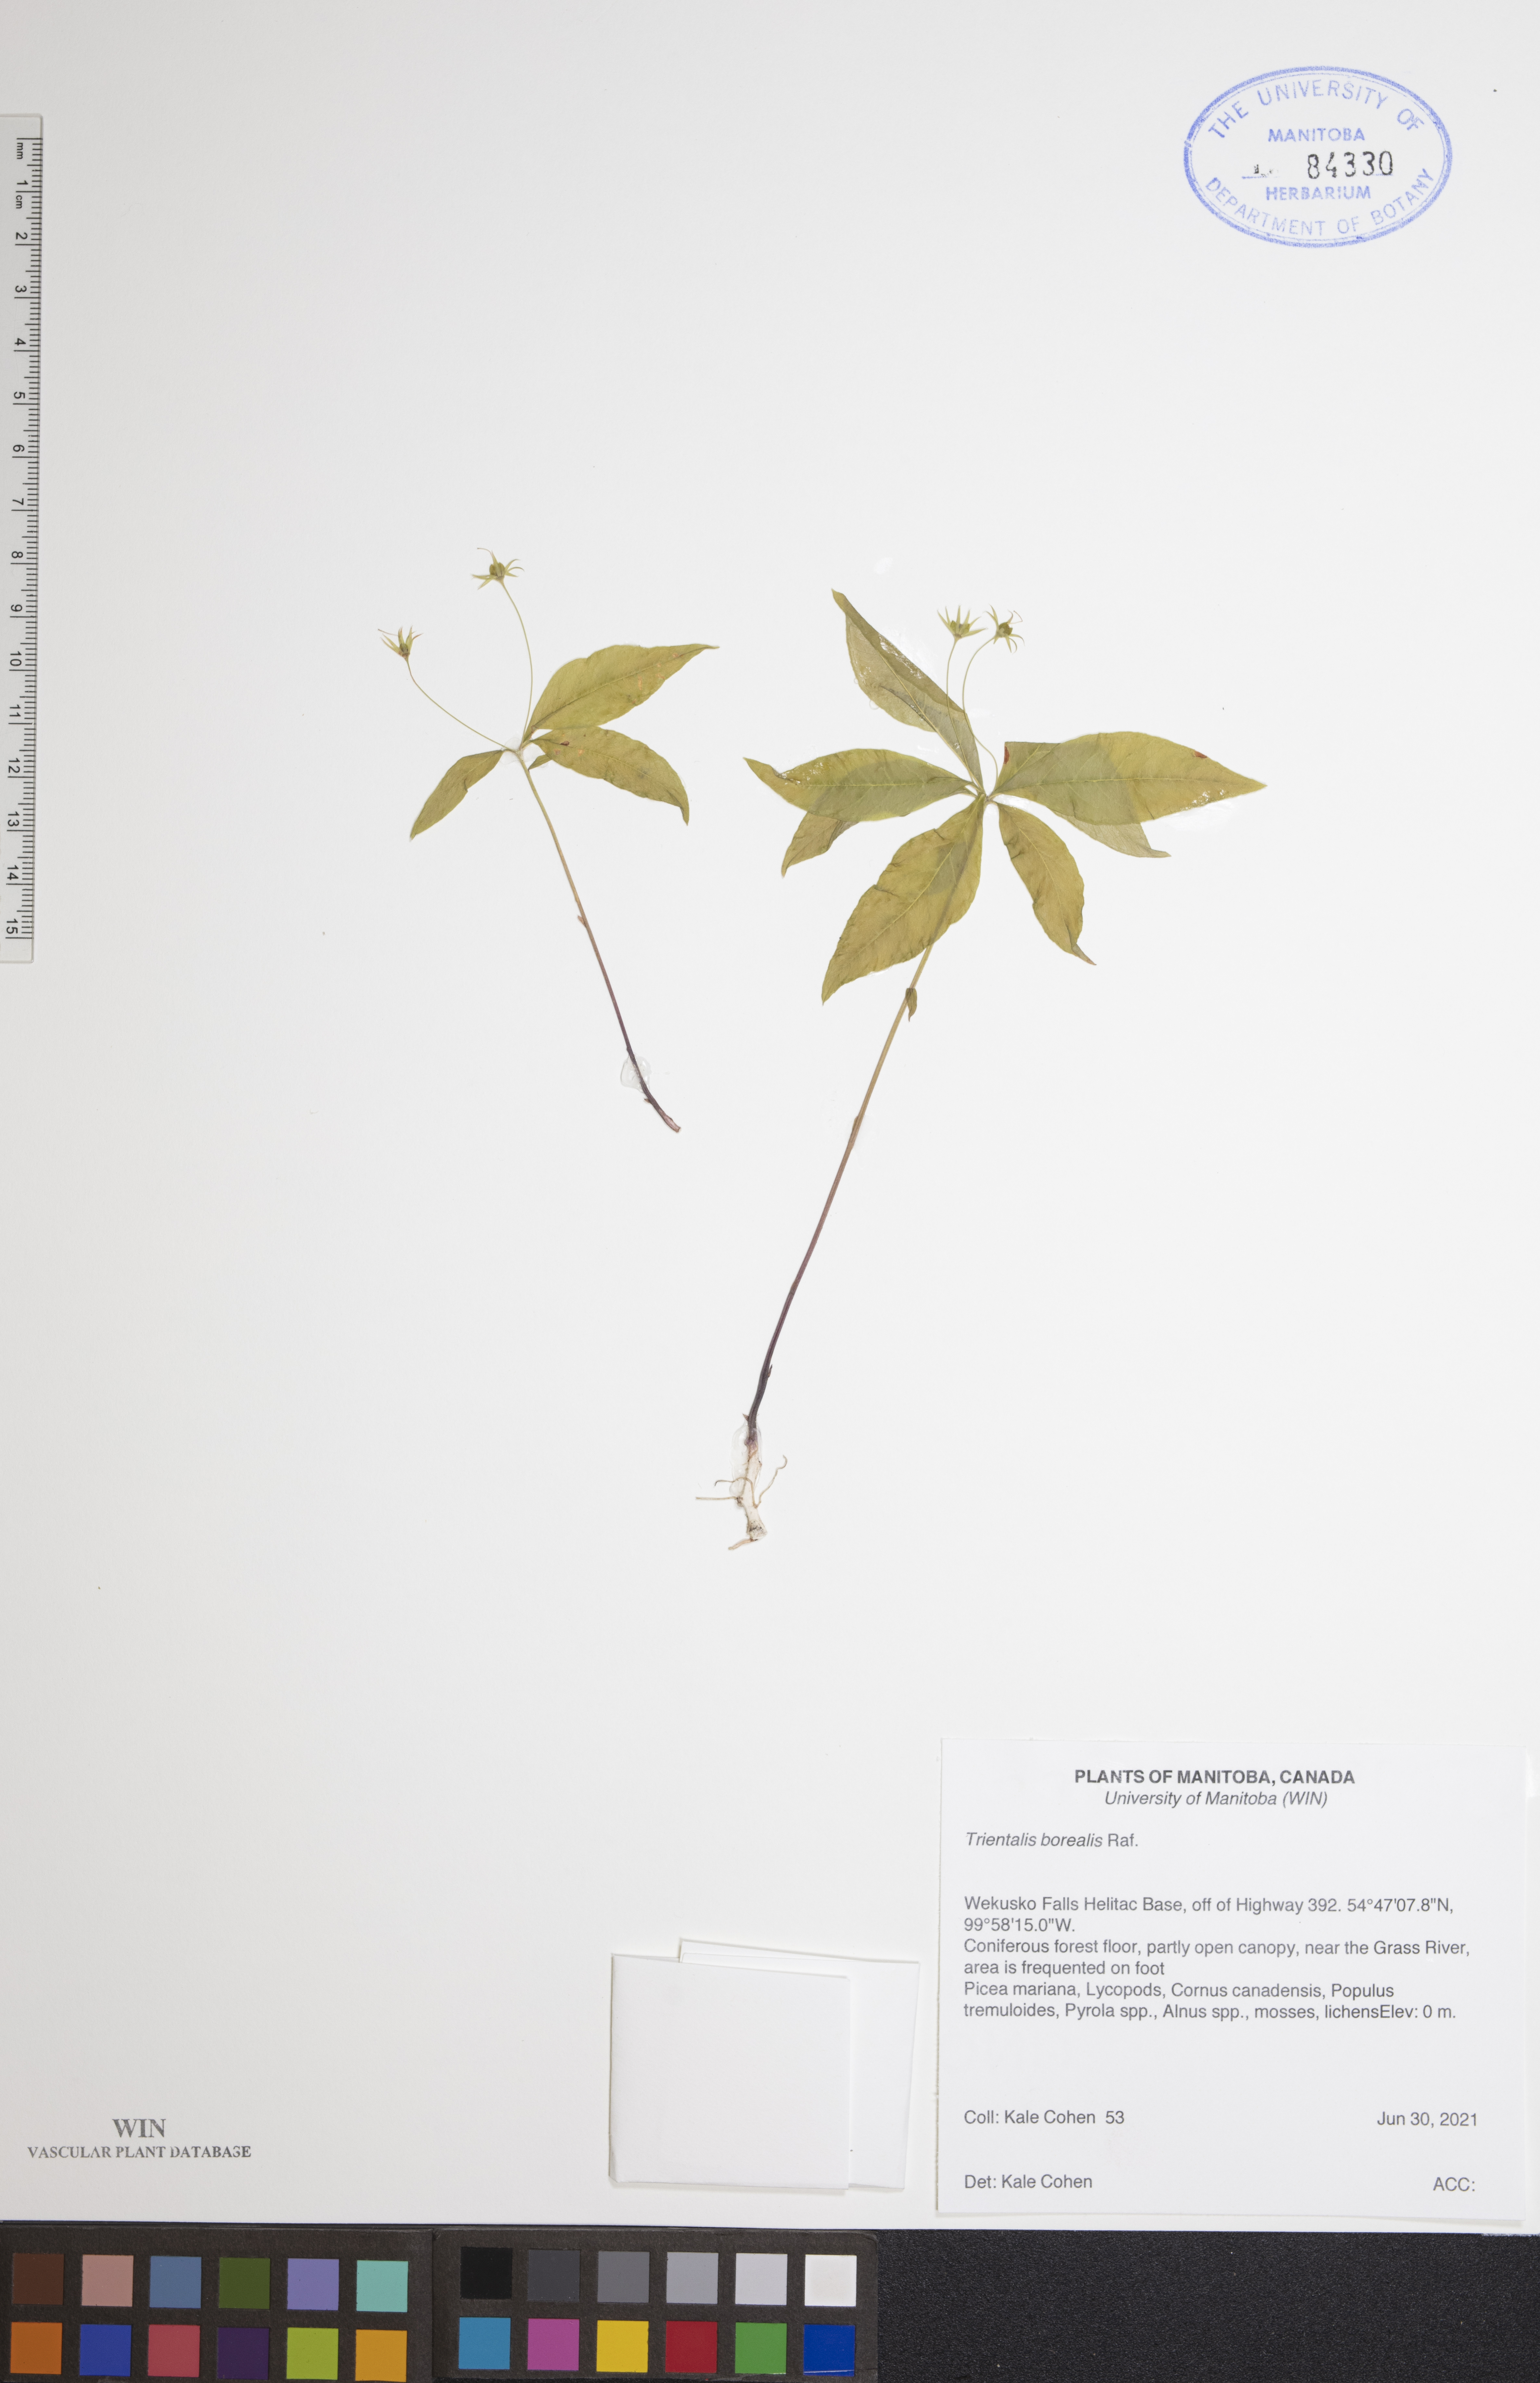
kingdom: Plantae
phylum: Tracheophyta
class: Magnoliopsida
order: Ericales
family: Primulaceae
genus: Lysimachia
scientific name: Lysimachia borealis
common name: American starflower
